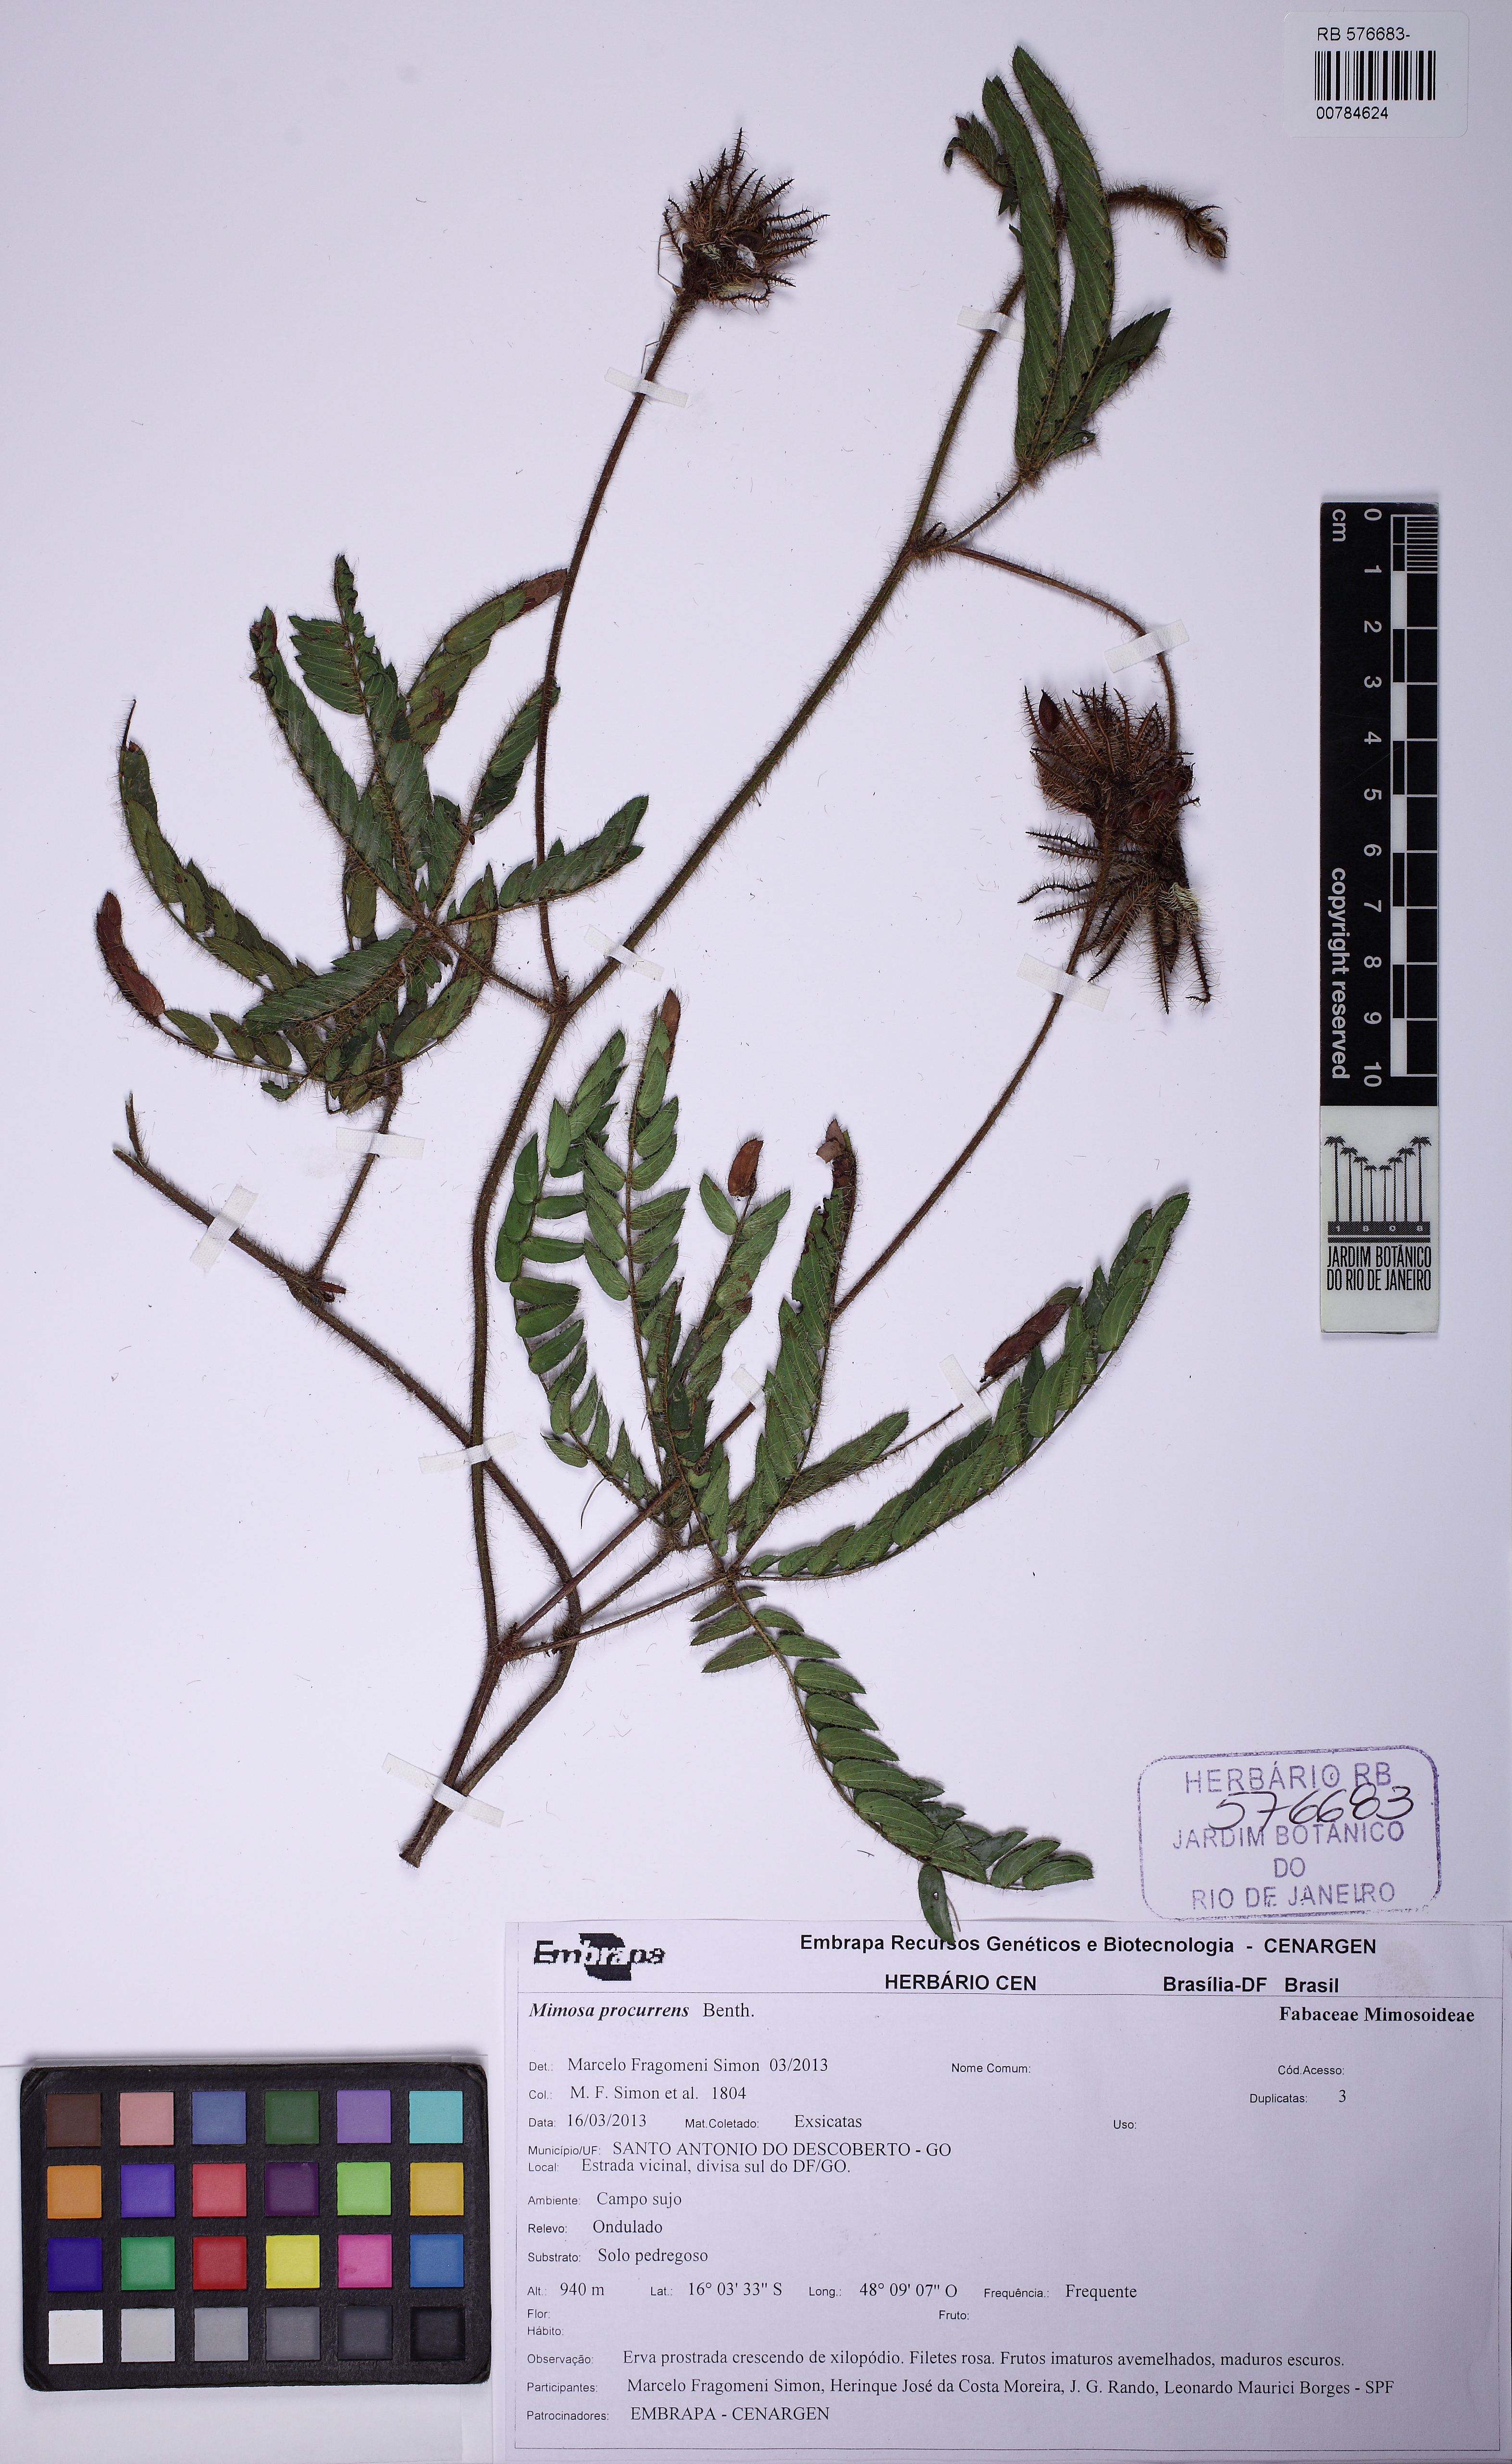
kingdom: Plantae
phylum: Tracheophyta
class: Magnoliopsida
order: Fabales
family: Fabaceae
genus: Mimosa
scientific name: Mimosa procurrens
